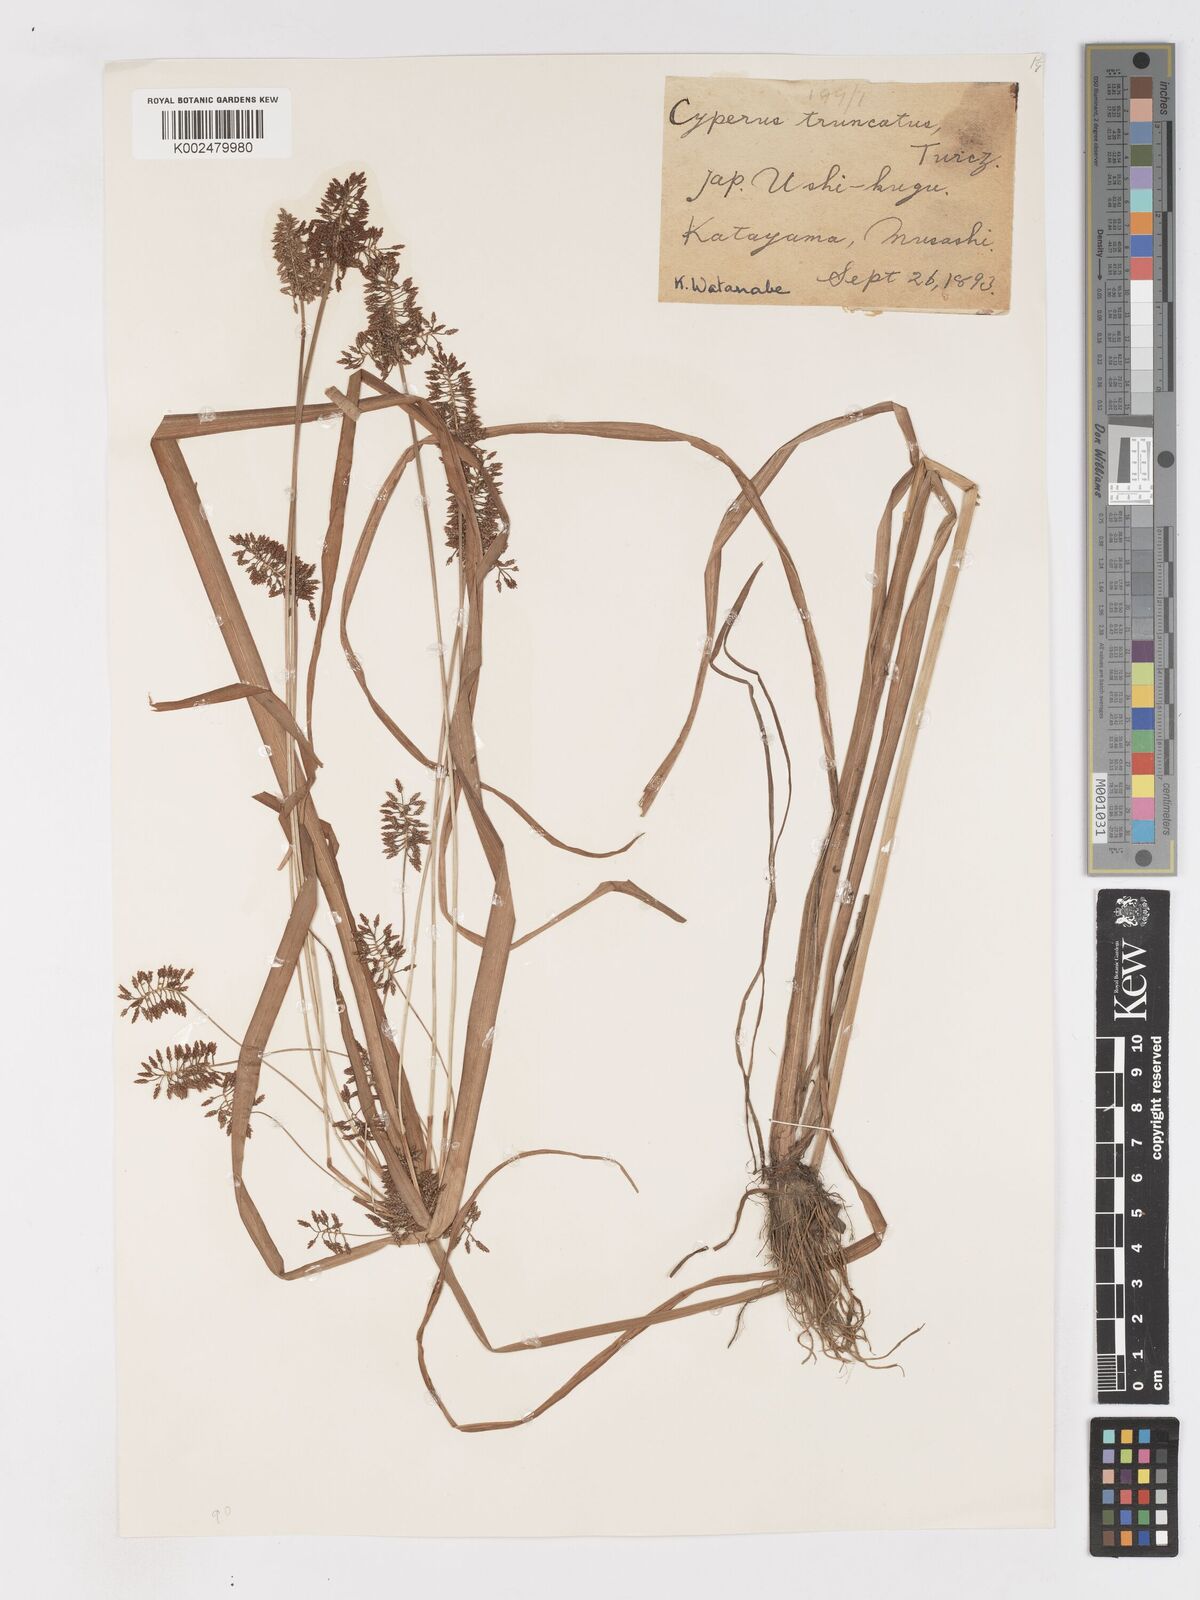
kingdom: Plantae
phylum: Tracheophyta
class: Liliopsida
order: Poales
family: Cyperaceae
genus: Cyperus
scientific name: Cyperus orthostachyus
